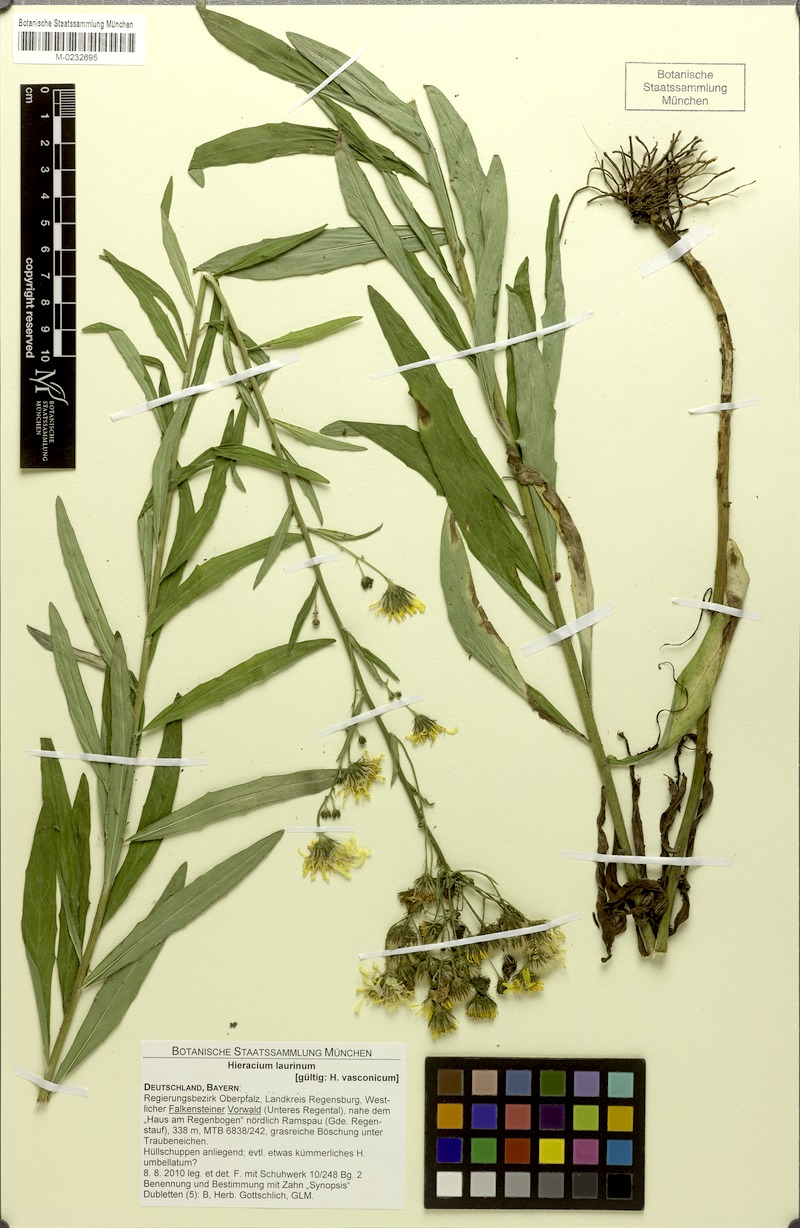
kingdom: Plantae
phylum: Tracheophyta
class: Magnoliopsida
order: Asterales
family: Asteraceae
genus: Hieracium
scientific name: Hieracium vasconicum
